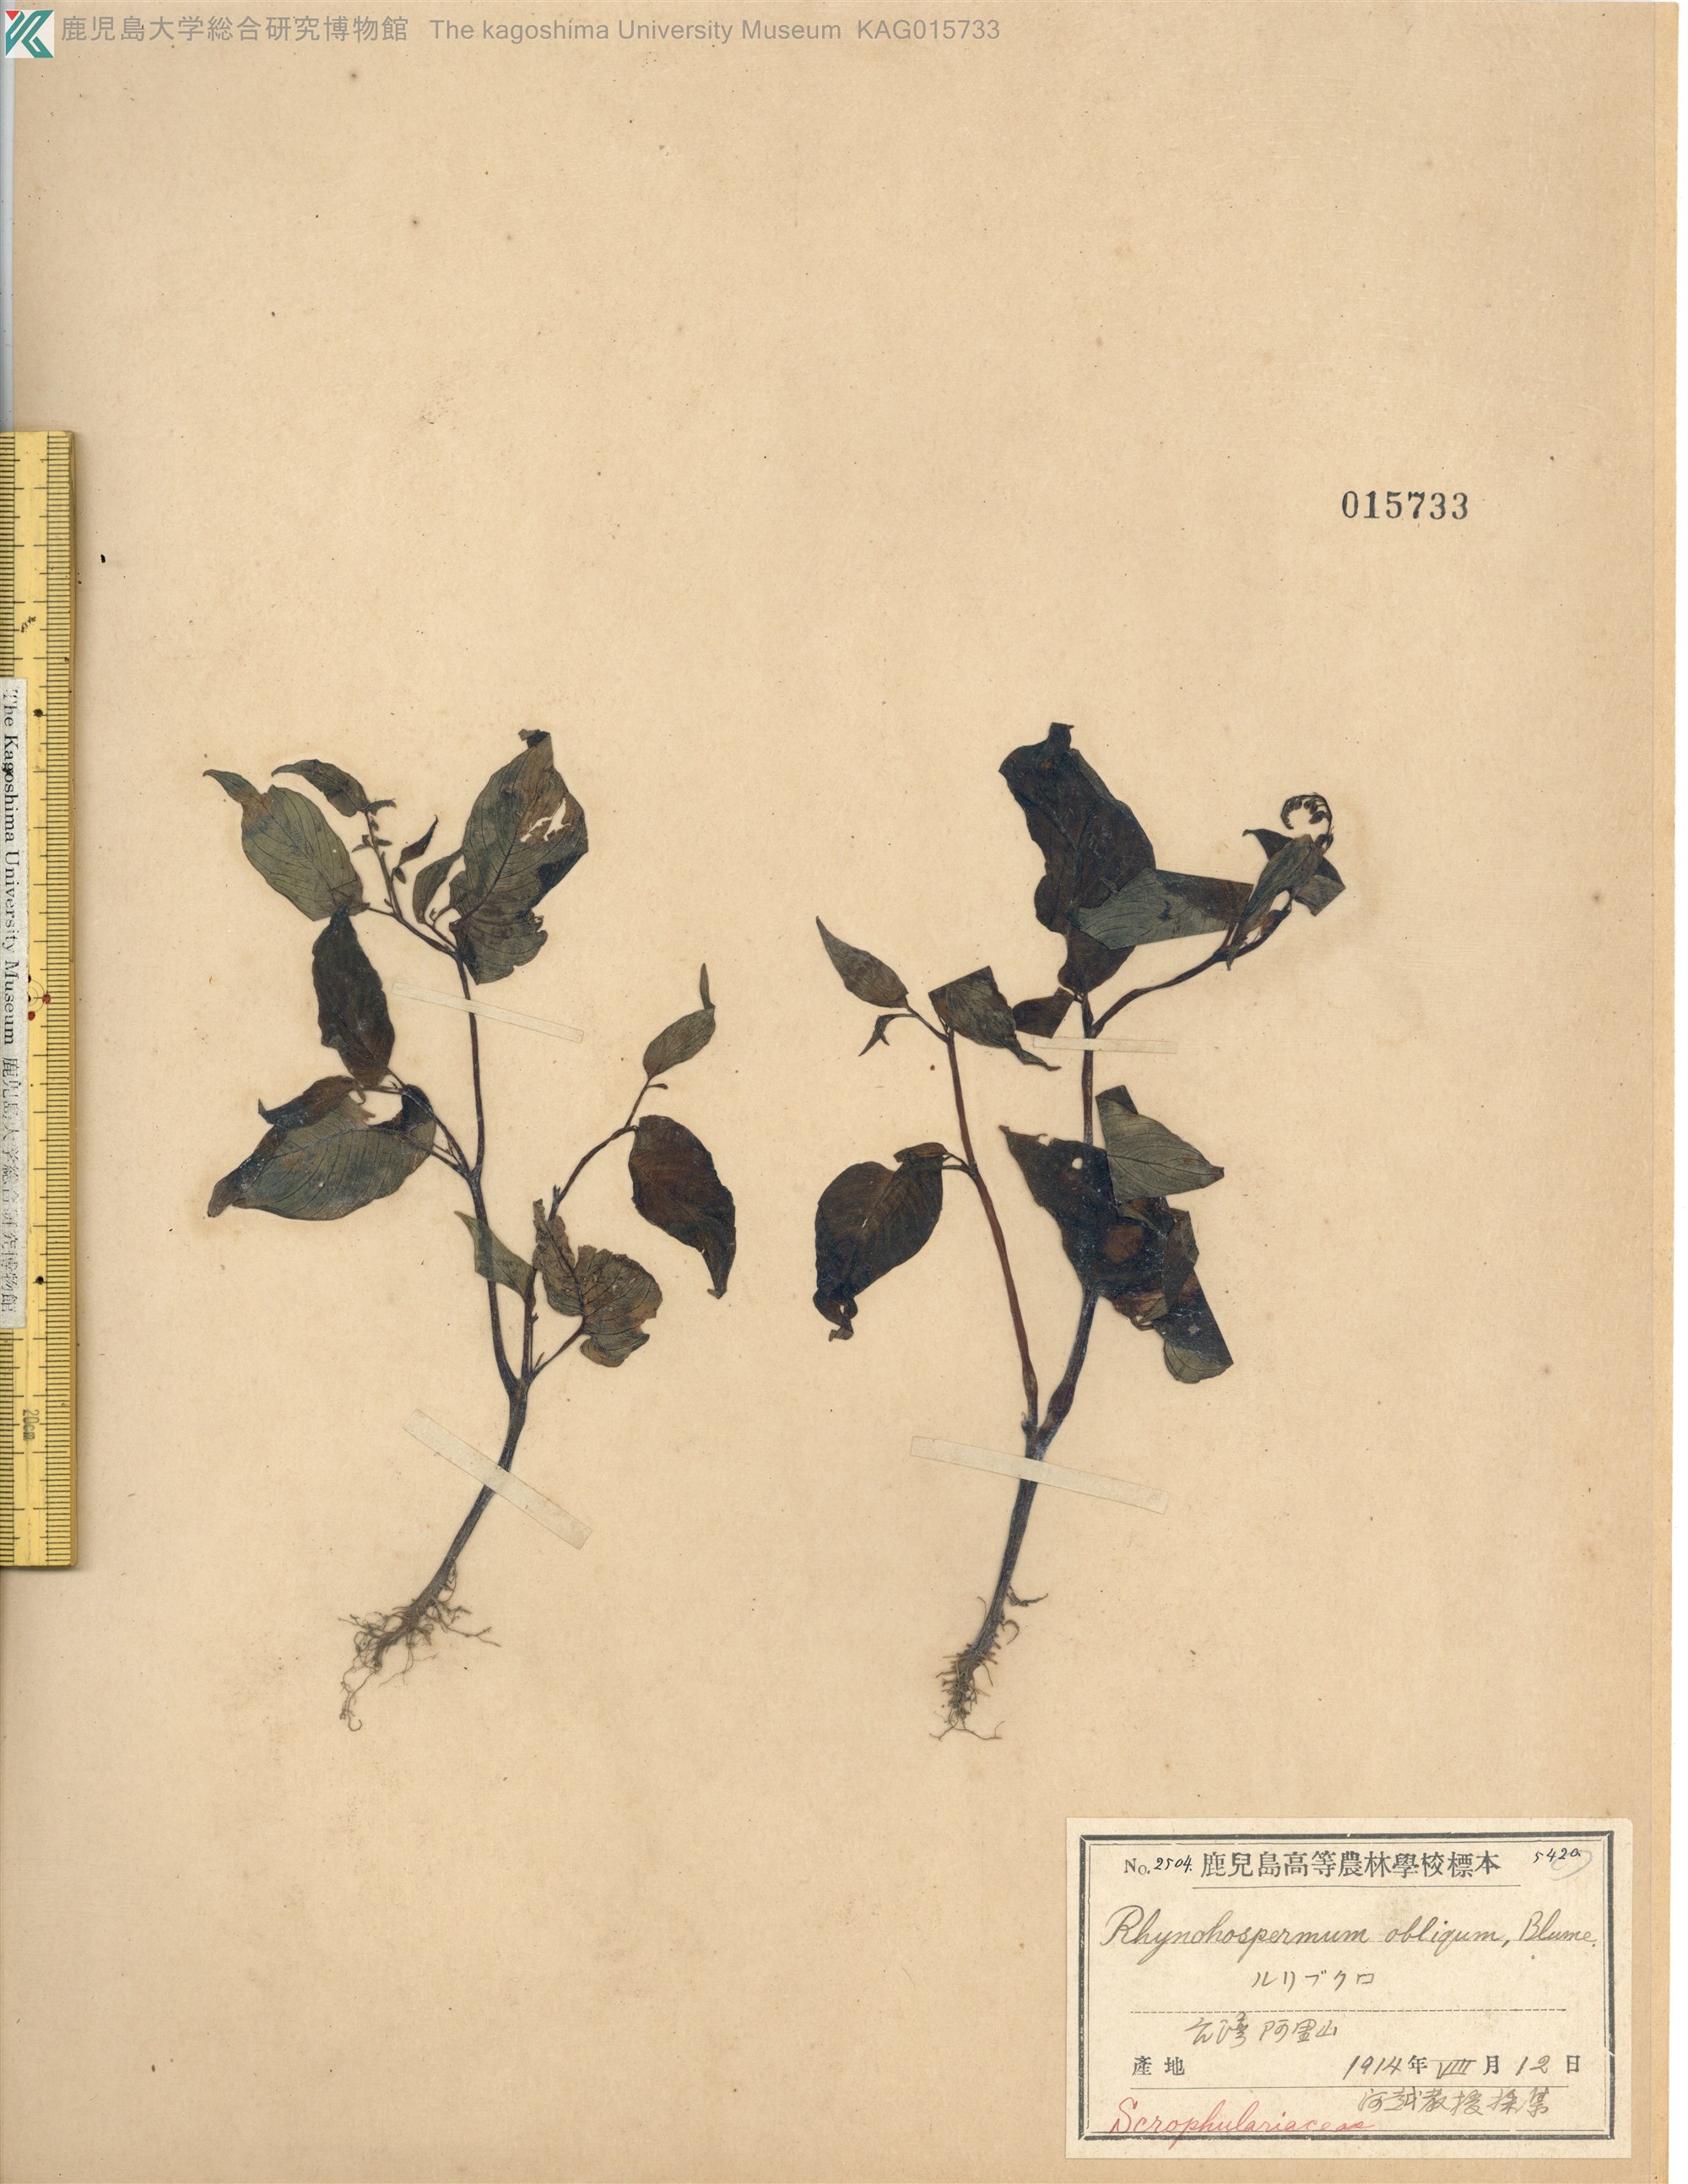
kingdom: Plantae
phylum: Tracheophyta
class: Magnoliopsida
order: Lamiales
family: Gesneriaceae
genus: Rhynchoglossum
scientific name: Rhynchoglossum obliquum
